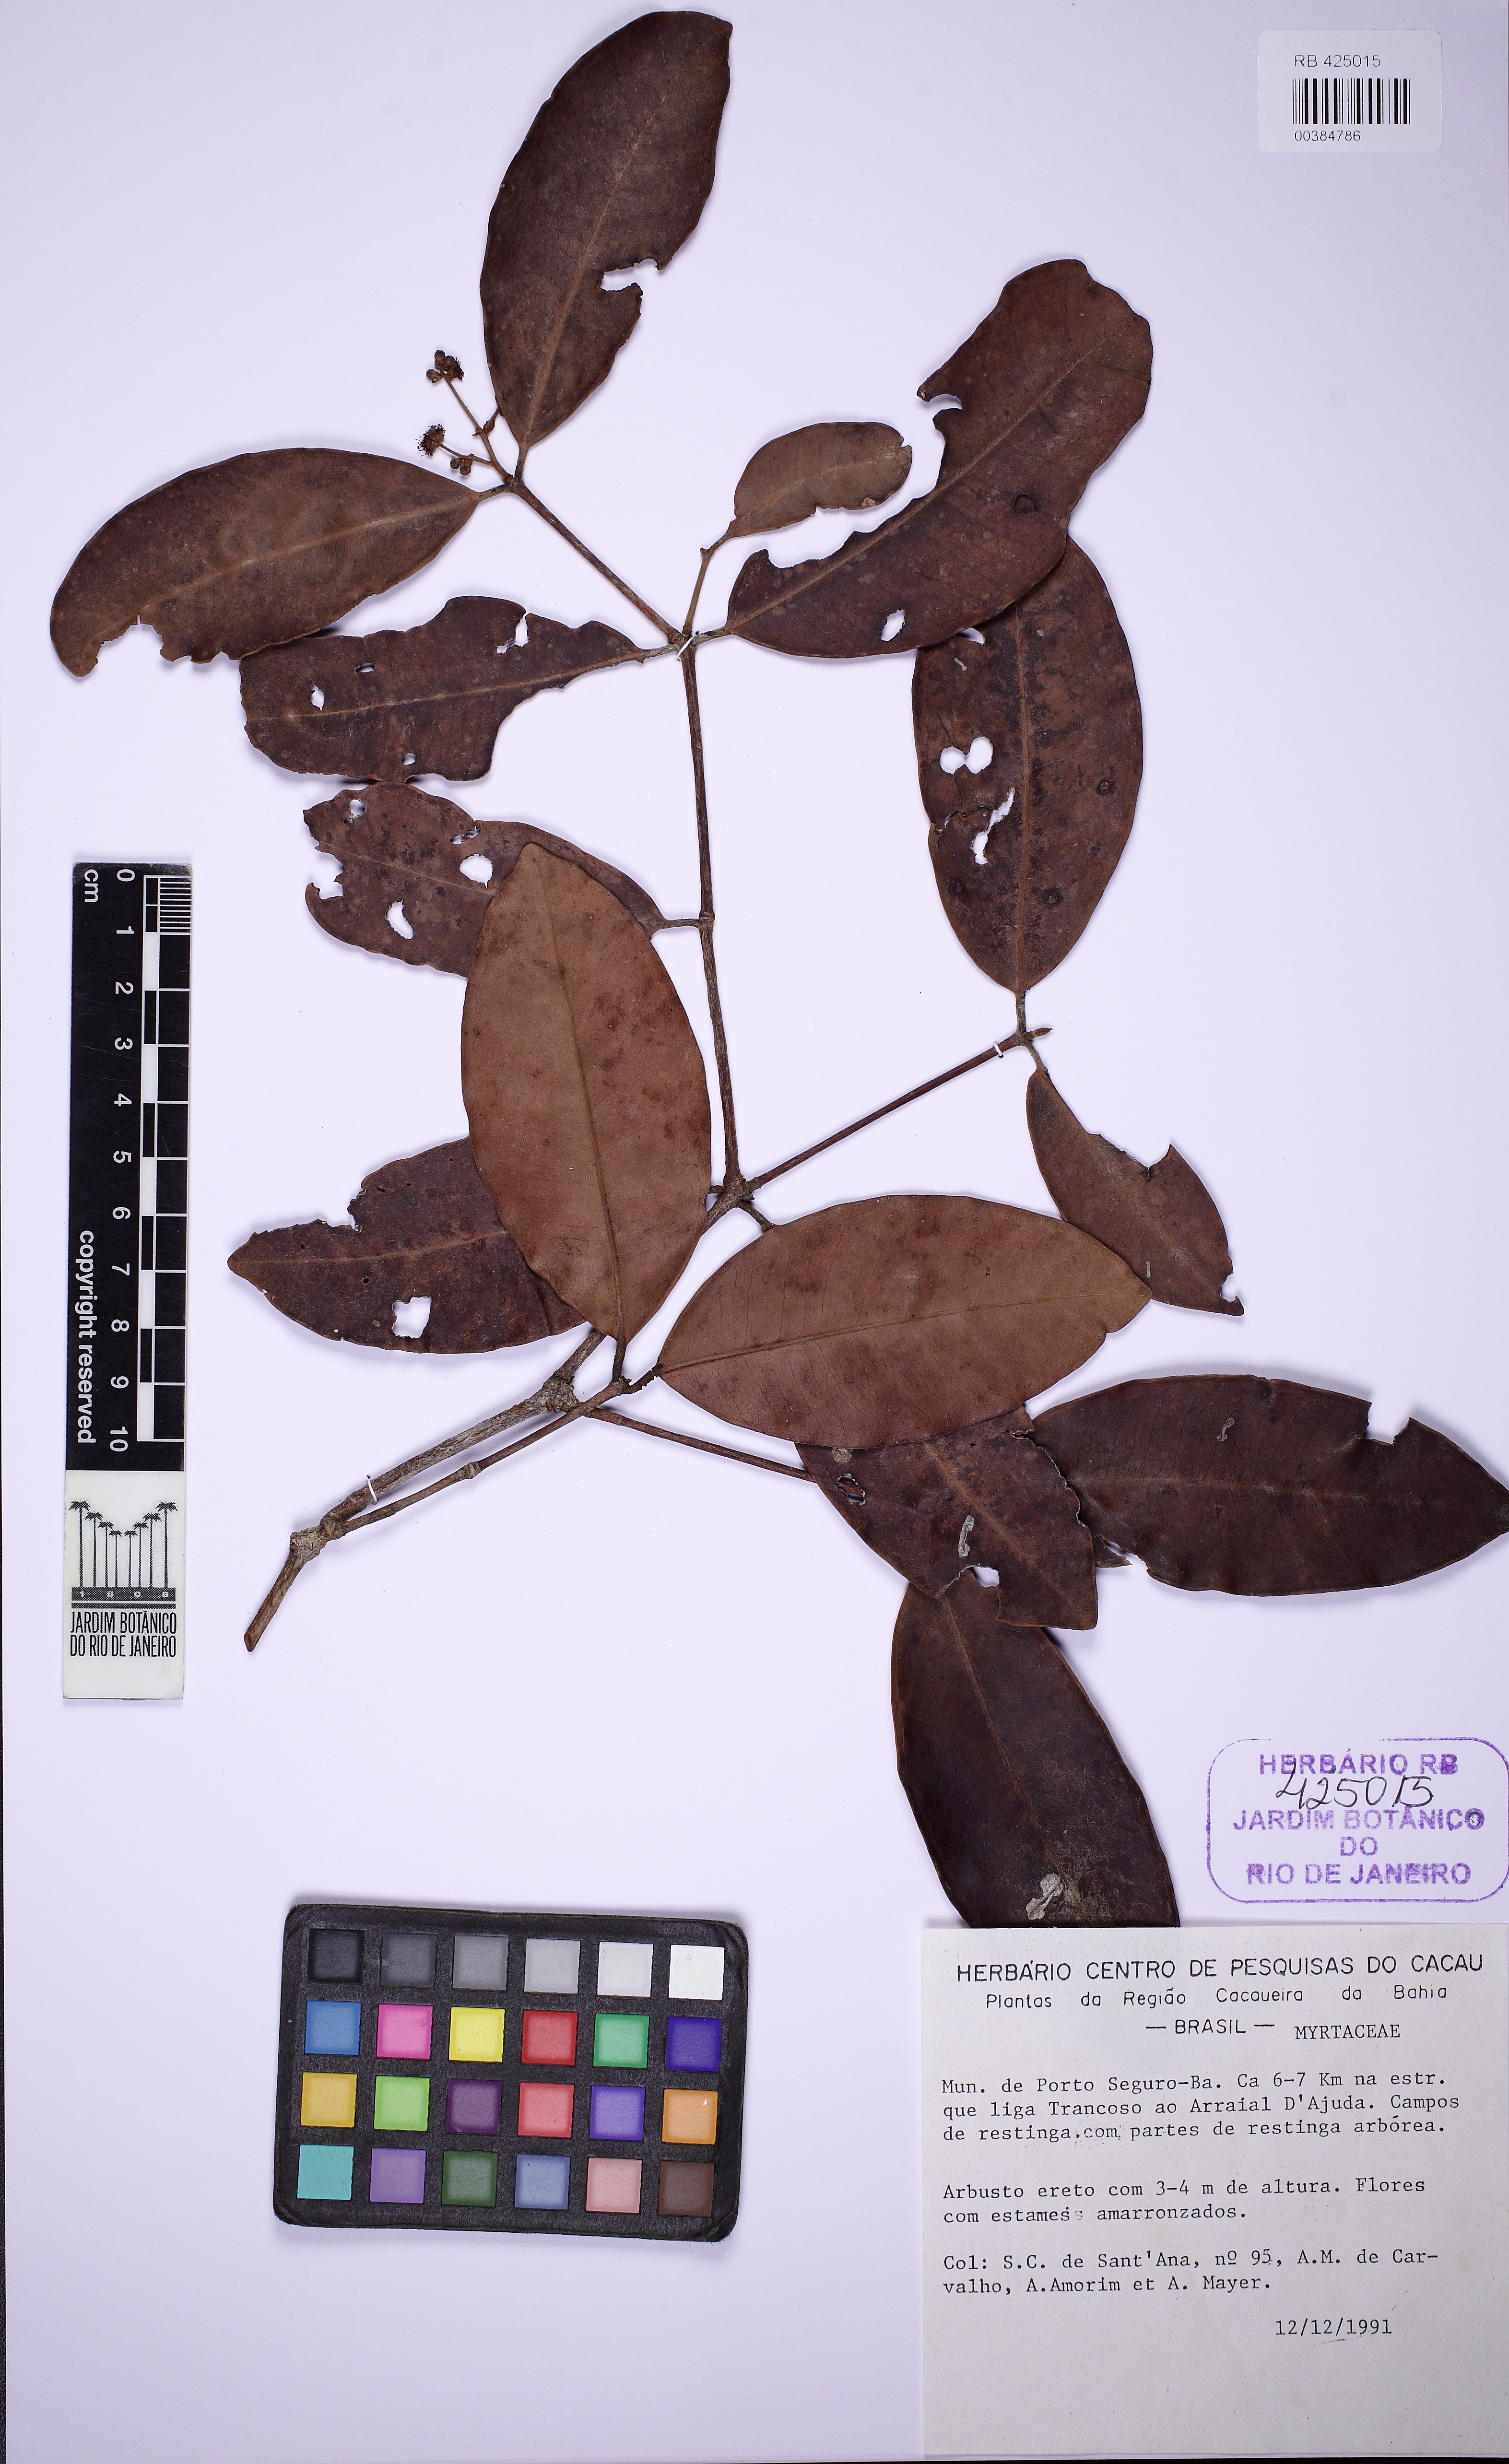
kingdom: Plantae
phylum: Tracheophyta
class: Magnoliopsida
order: Myrtales
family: Myrtaceae
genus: Myrcia
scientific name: Myrcia neuwiedeana
